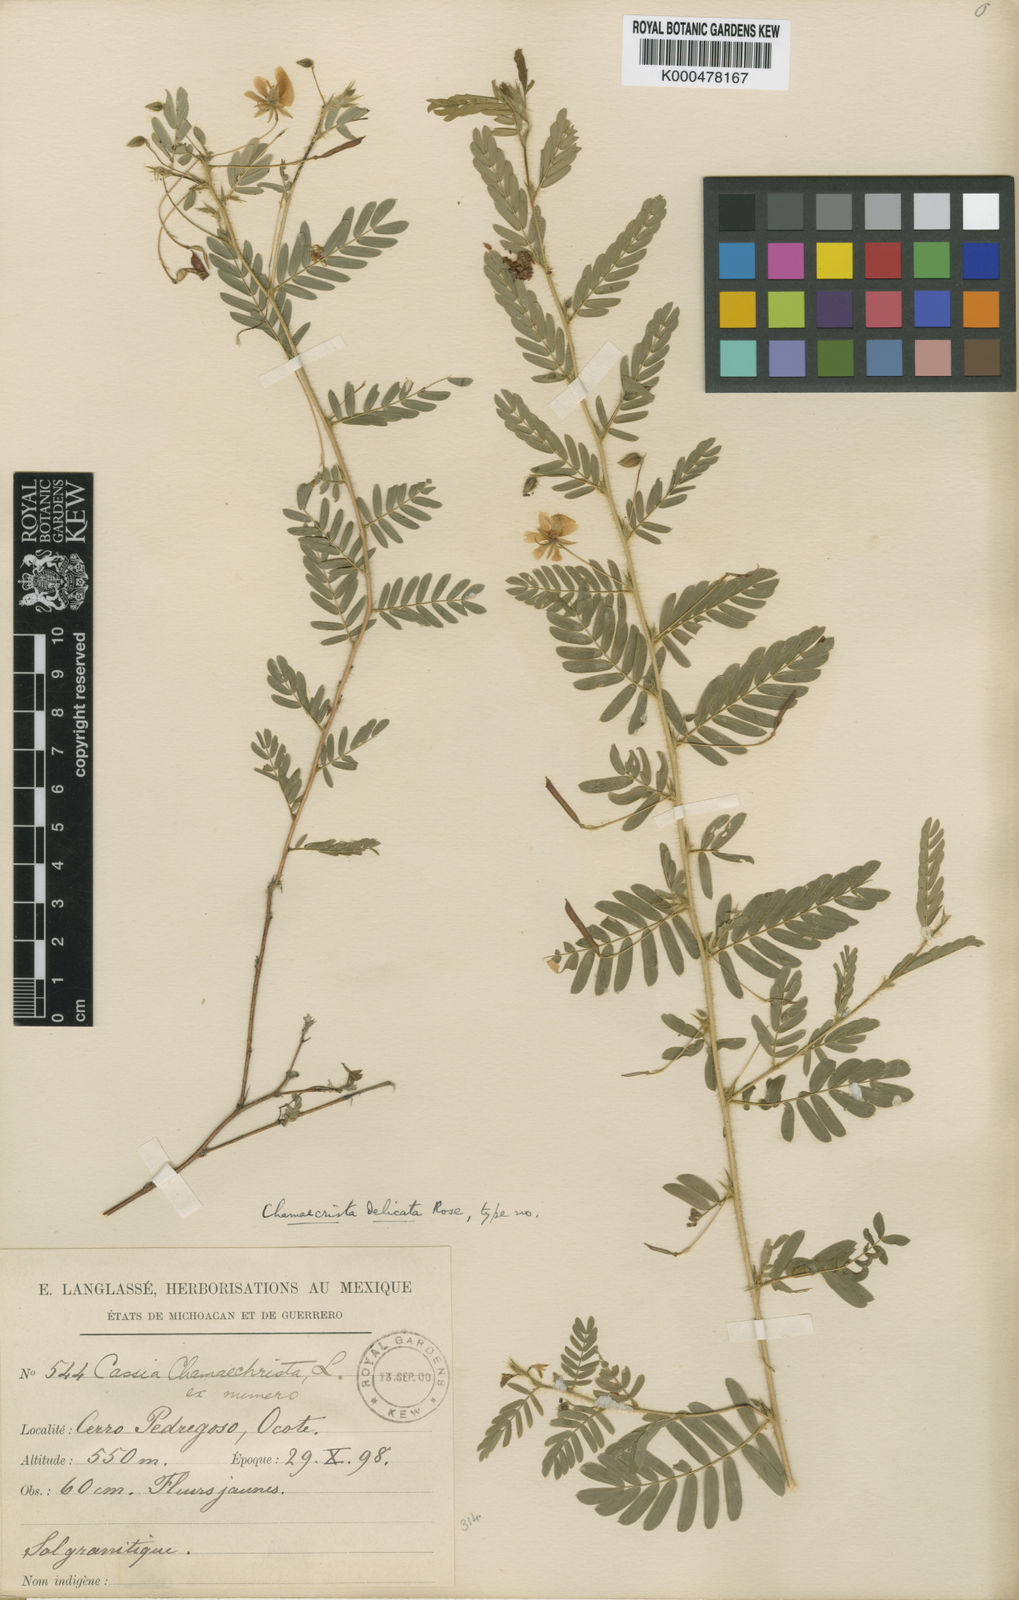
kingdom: Plantae
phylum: Tracheophyta
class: Magnoliopsida
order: Fabales
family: Fabaceae
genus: Chamaecrista
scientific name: Chamaecrista serpens
